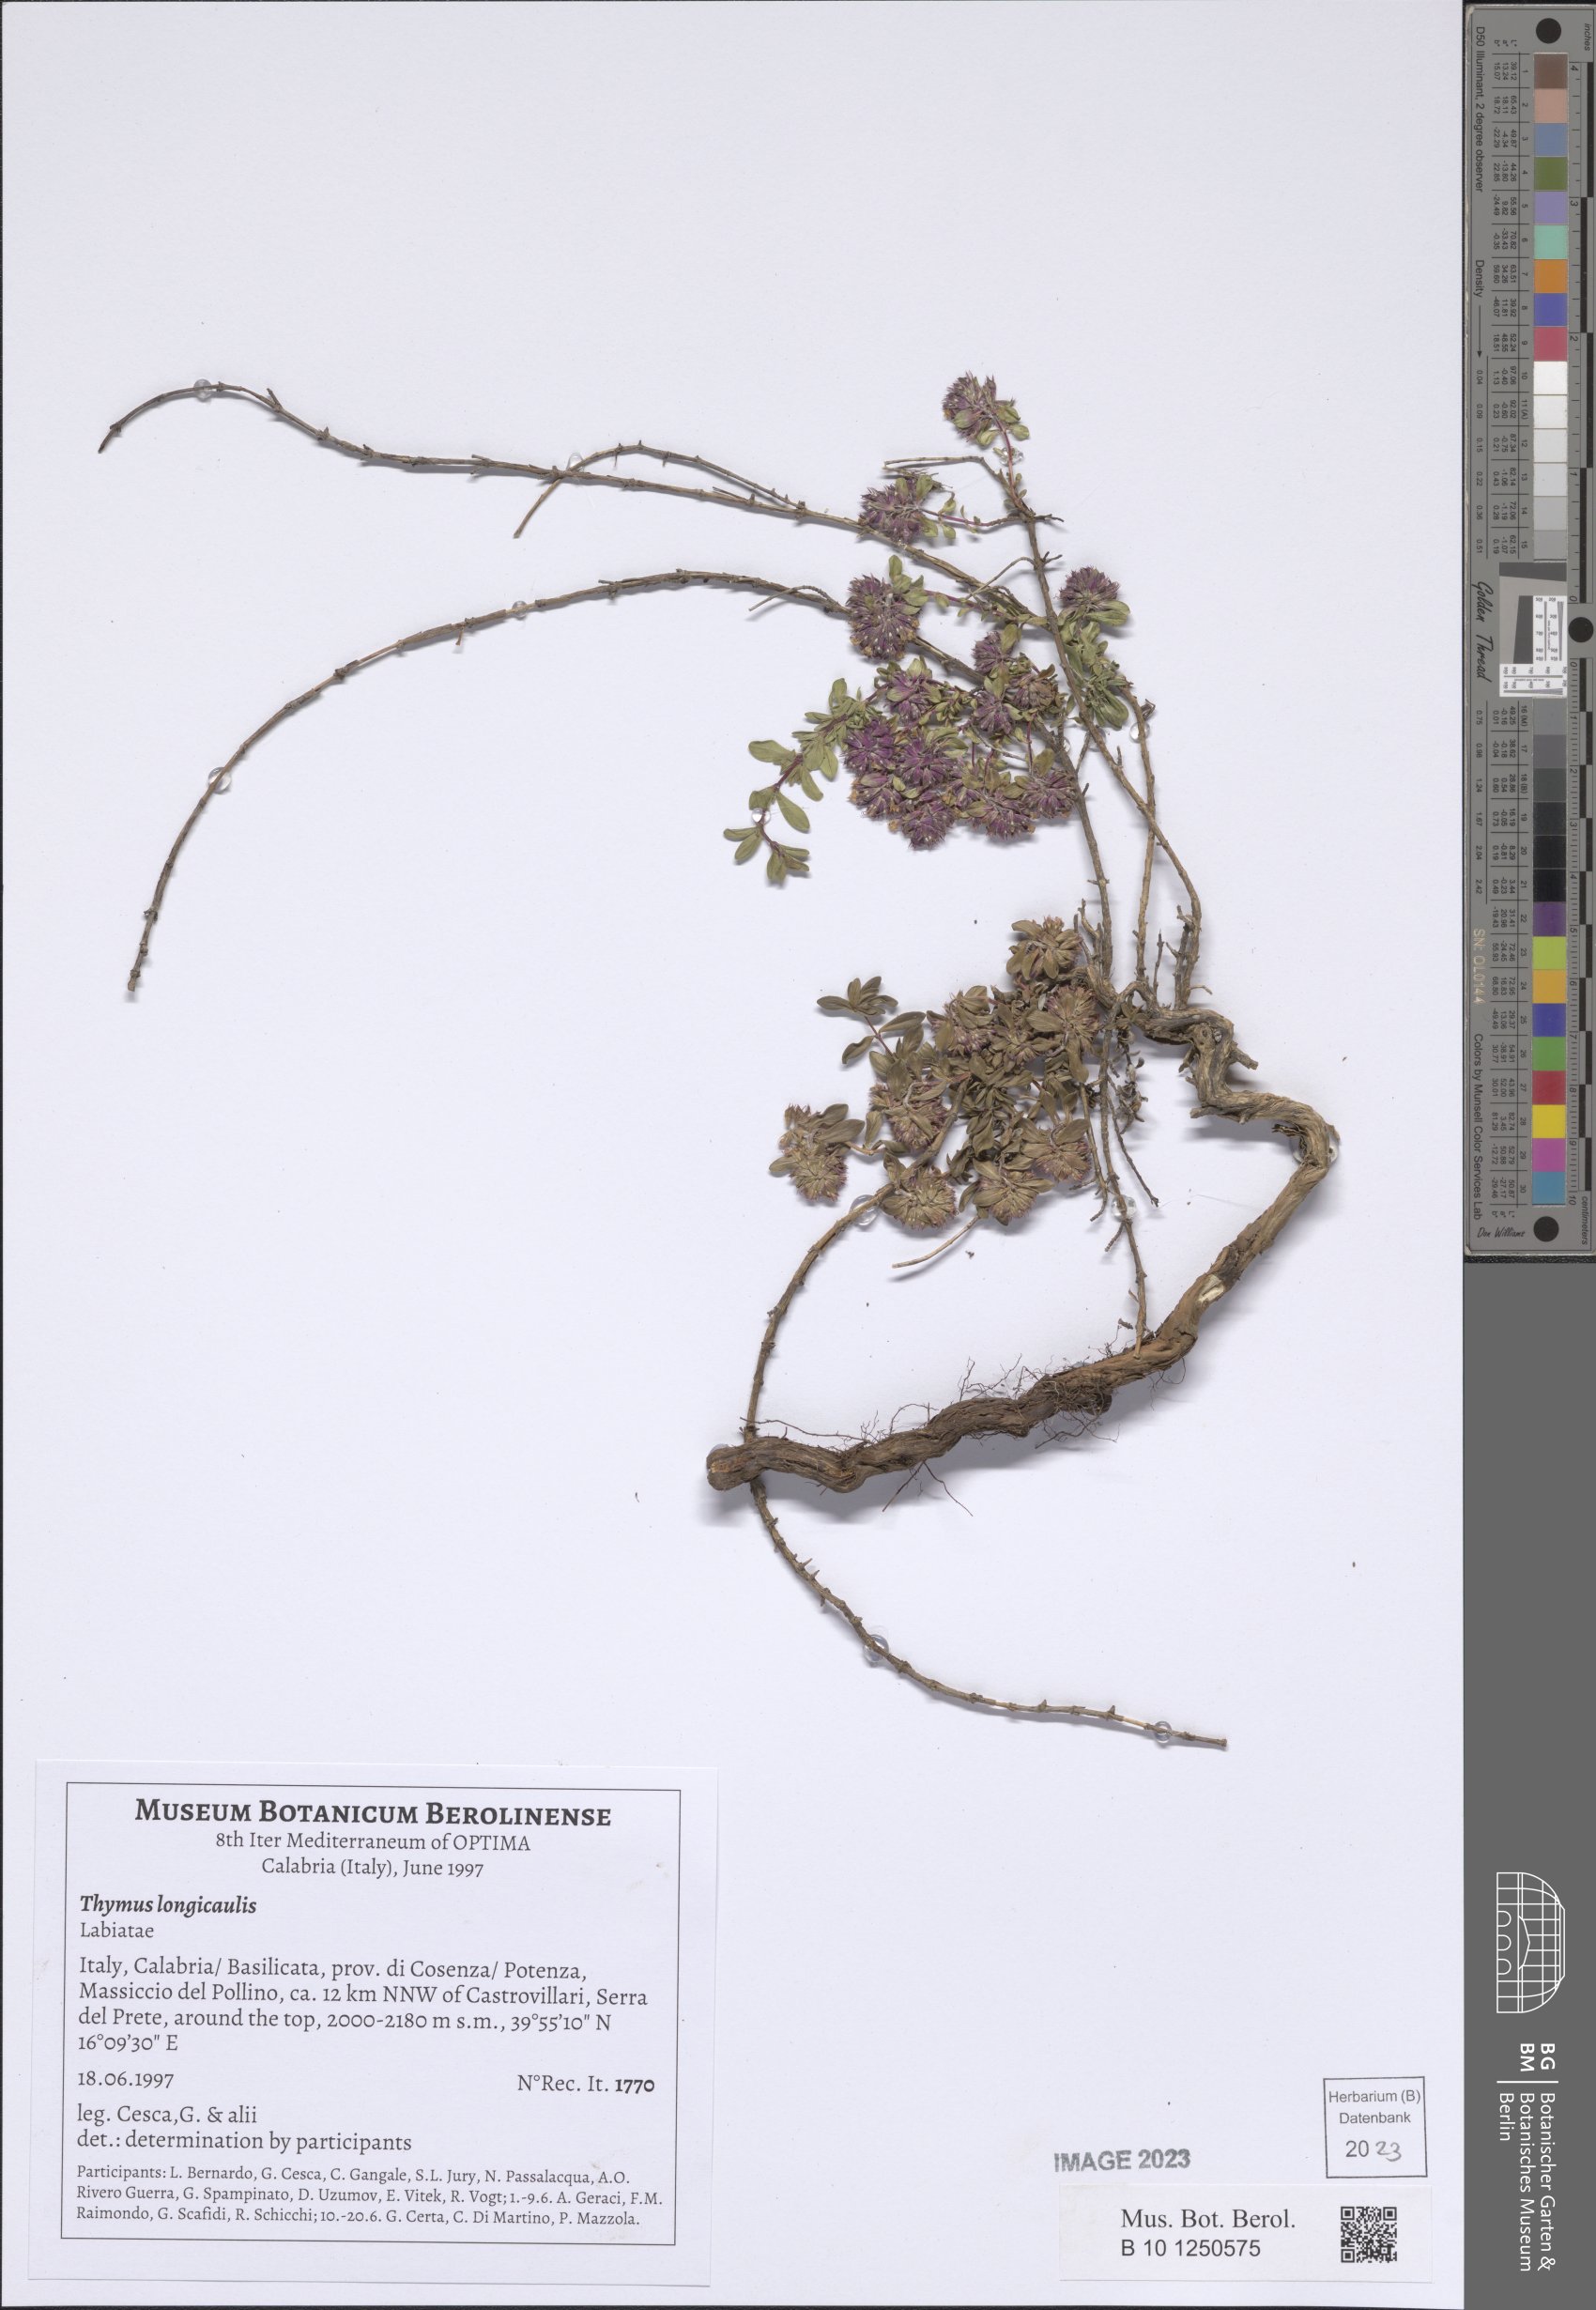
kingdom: Plantae
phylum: Tracheophyta
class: Magnoliopsida
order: Lamiales
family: Lamiaceae
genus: Thymus
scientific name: Thymus longicaulis
